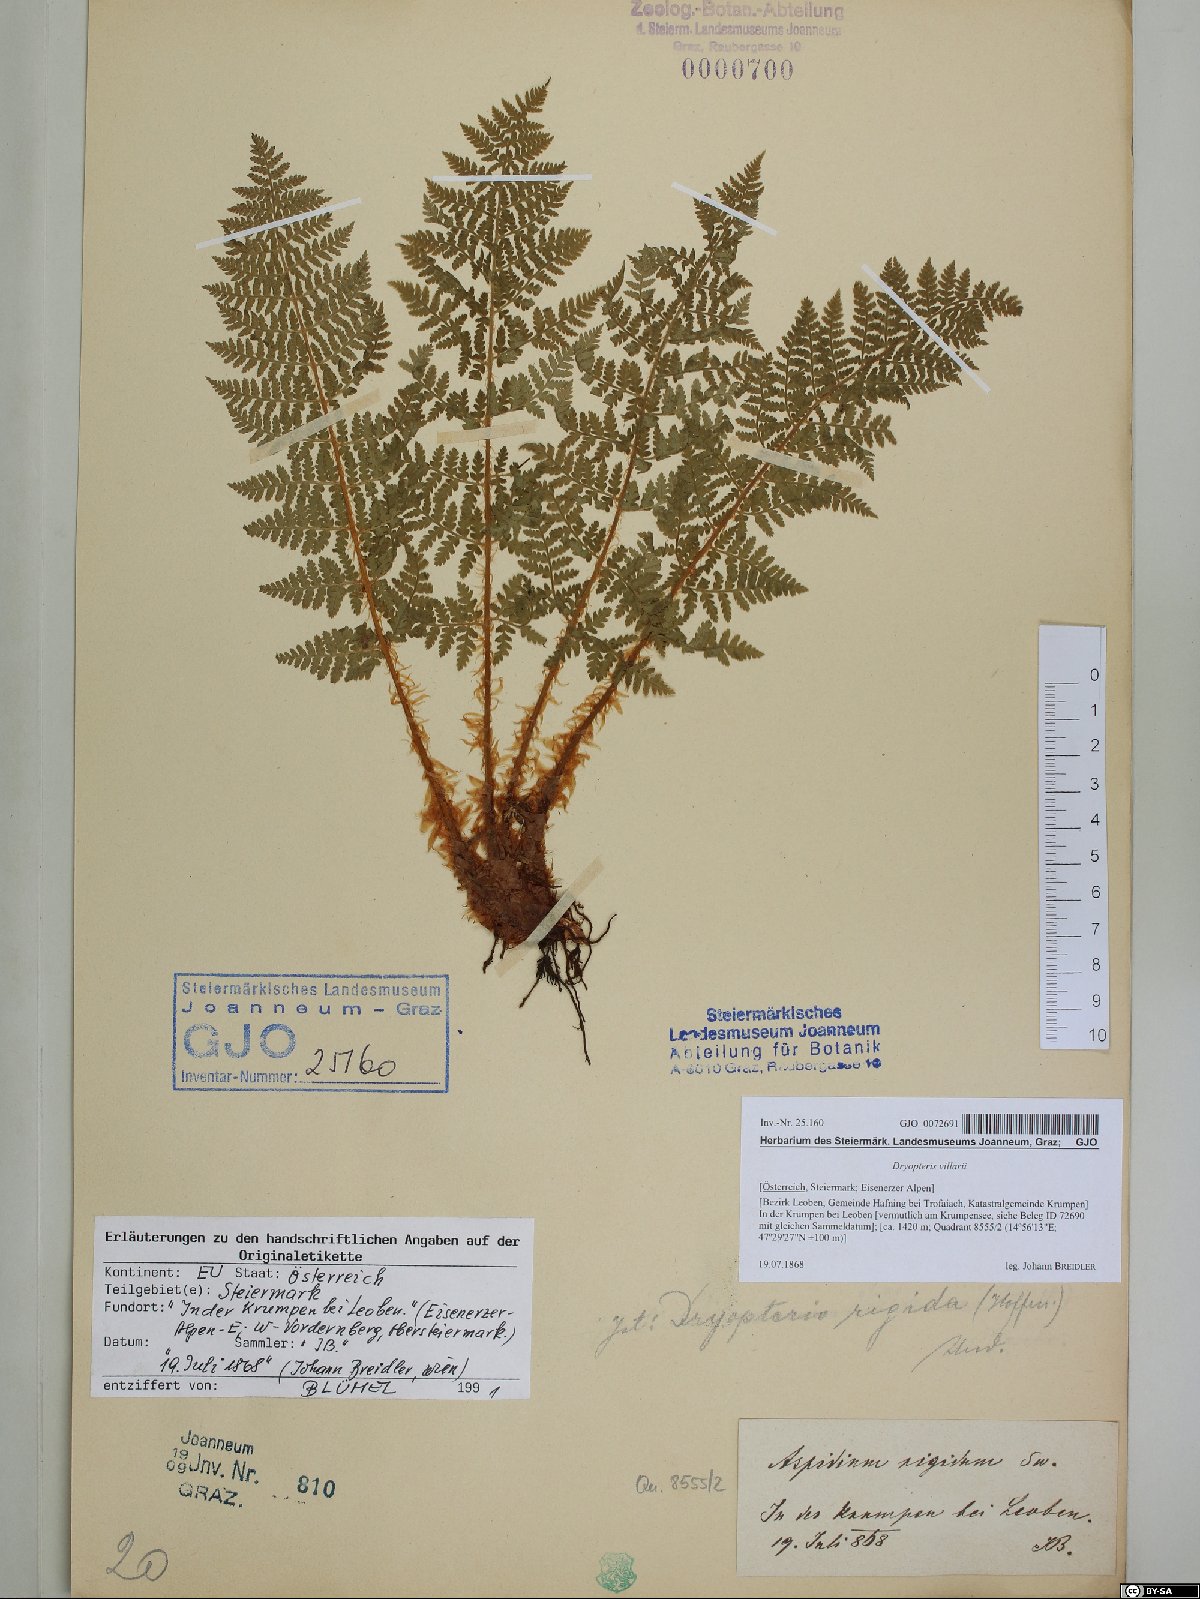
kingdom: Plantae
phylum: Tracheophyta
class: Polypodiopsida
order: Polypodiales
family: Dryopteridaceae
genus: Dryopteris
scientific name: Dryopteris villarii
